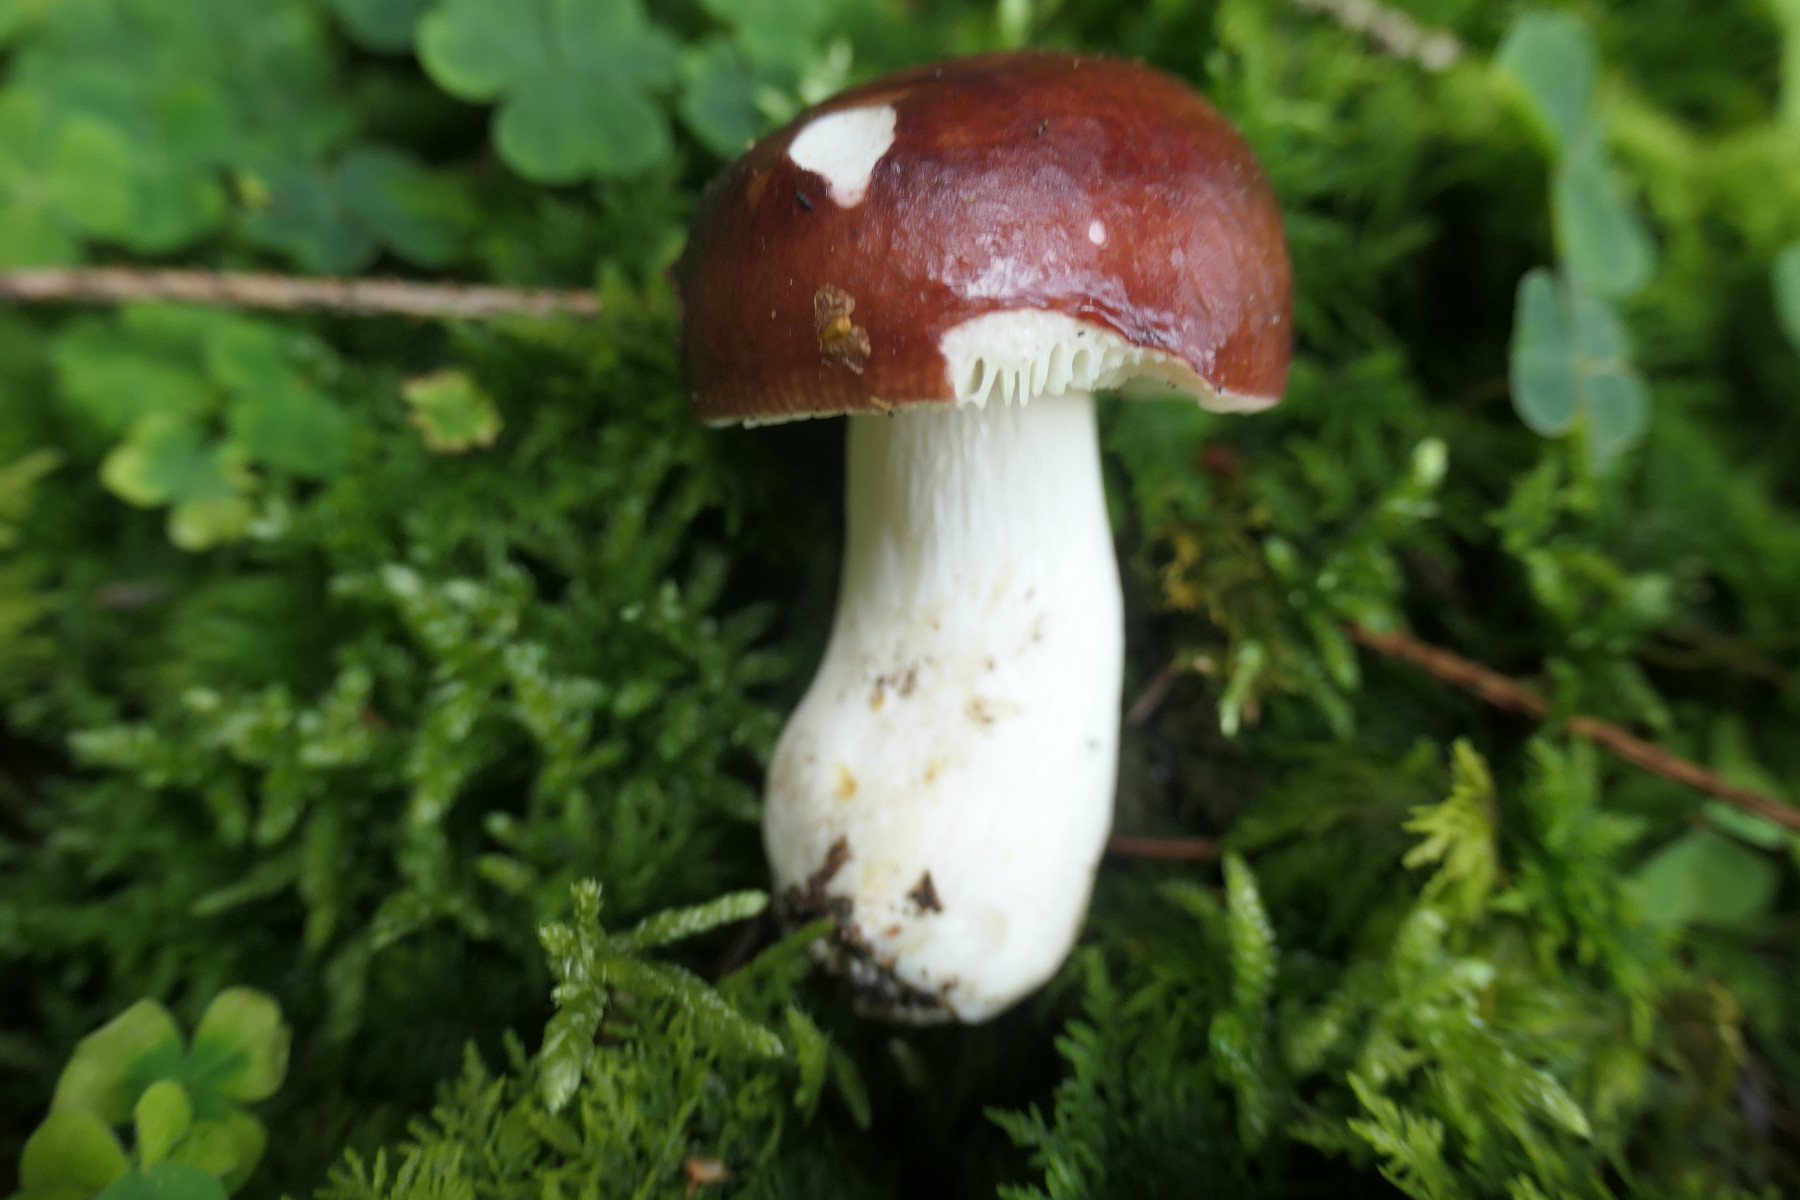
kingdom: Fungi
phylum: Basidiomycota
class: Agaricomycetes
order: Russulales
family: Russulaceae
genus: Russula
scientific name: Russula integra
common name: mandel-skørhat
